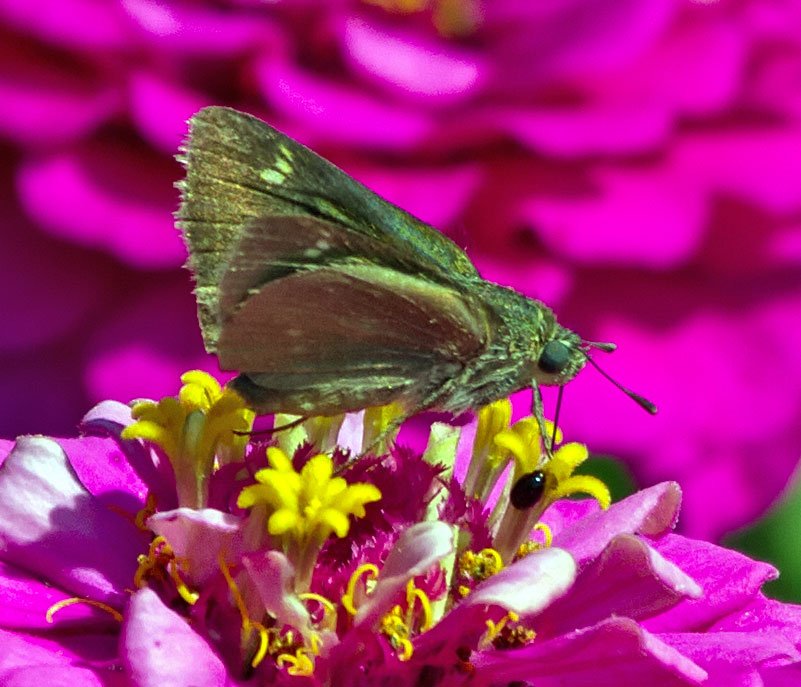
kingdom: Animalia
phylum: Arthropoda
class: Insecta
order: Lepidoptera
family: Hesperiidae
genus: Vernia
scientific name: Vernia verna
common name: Little Glassywing
